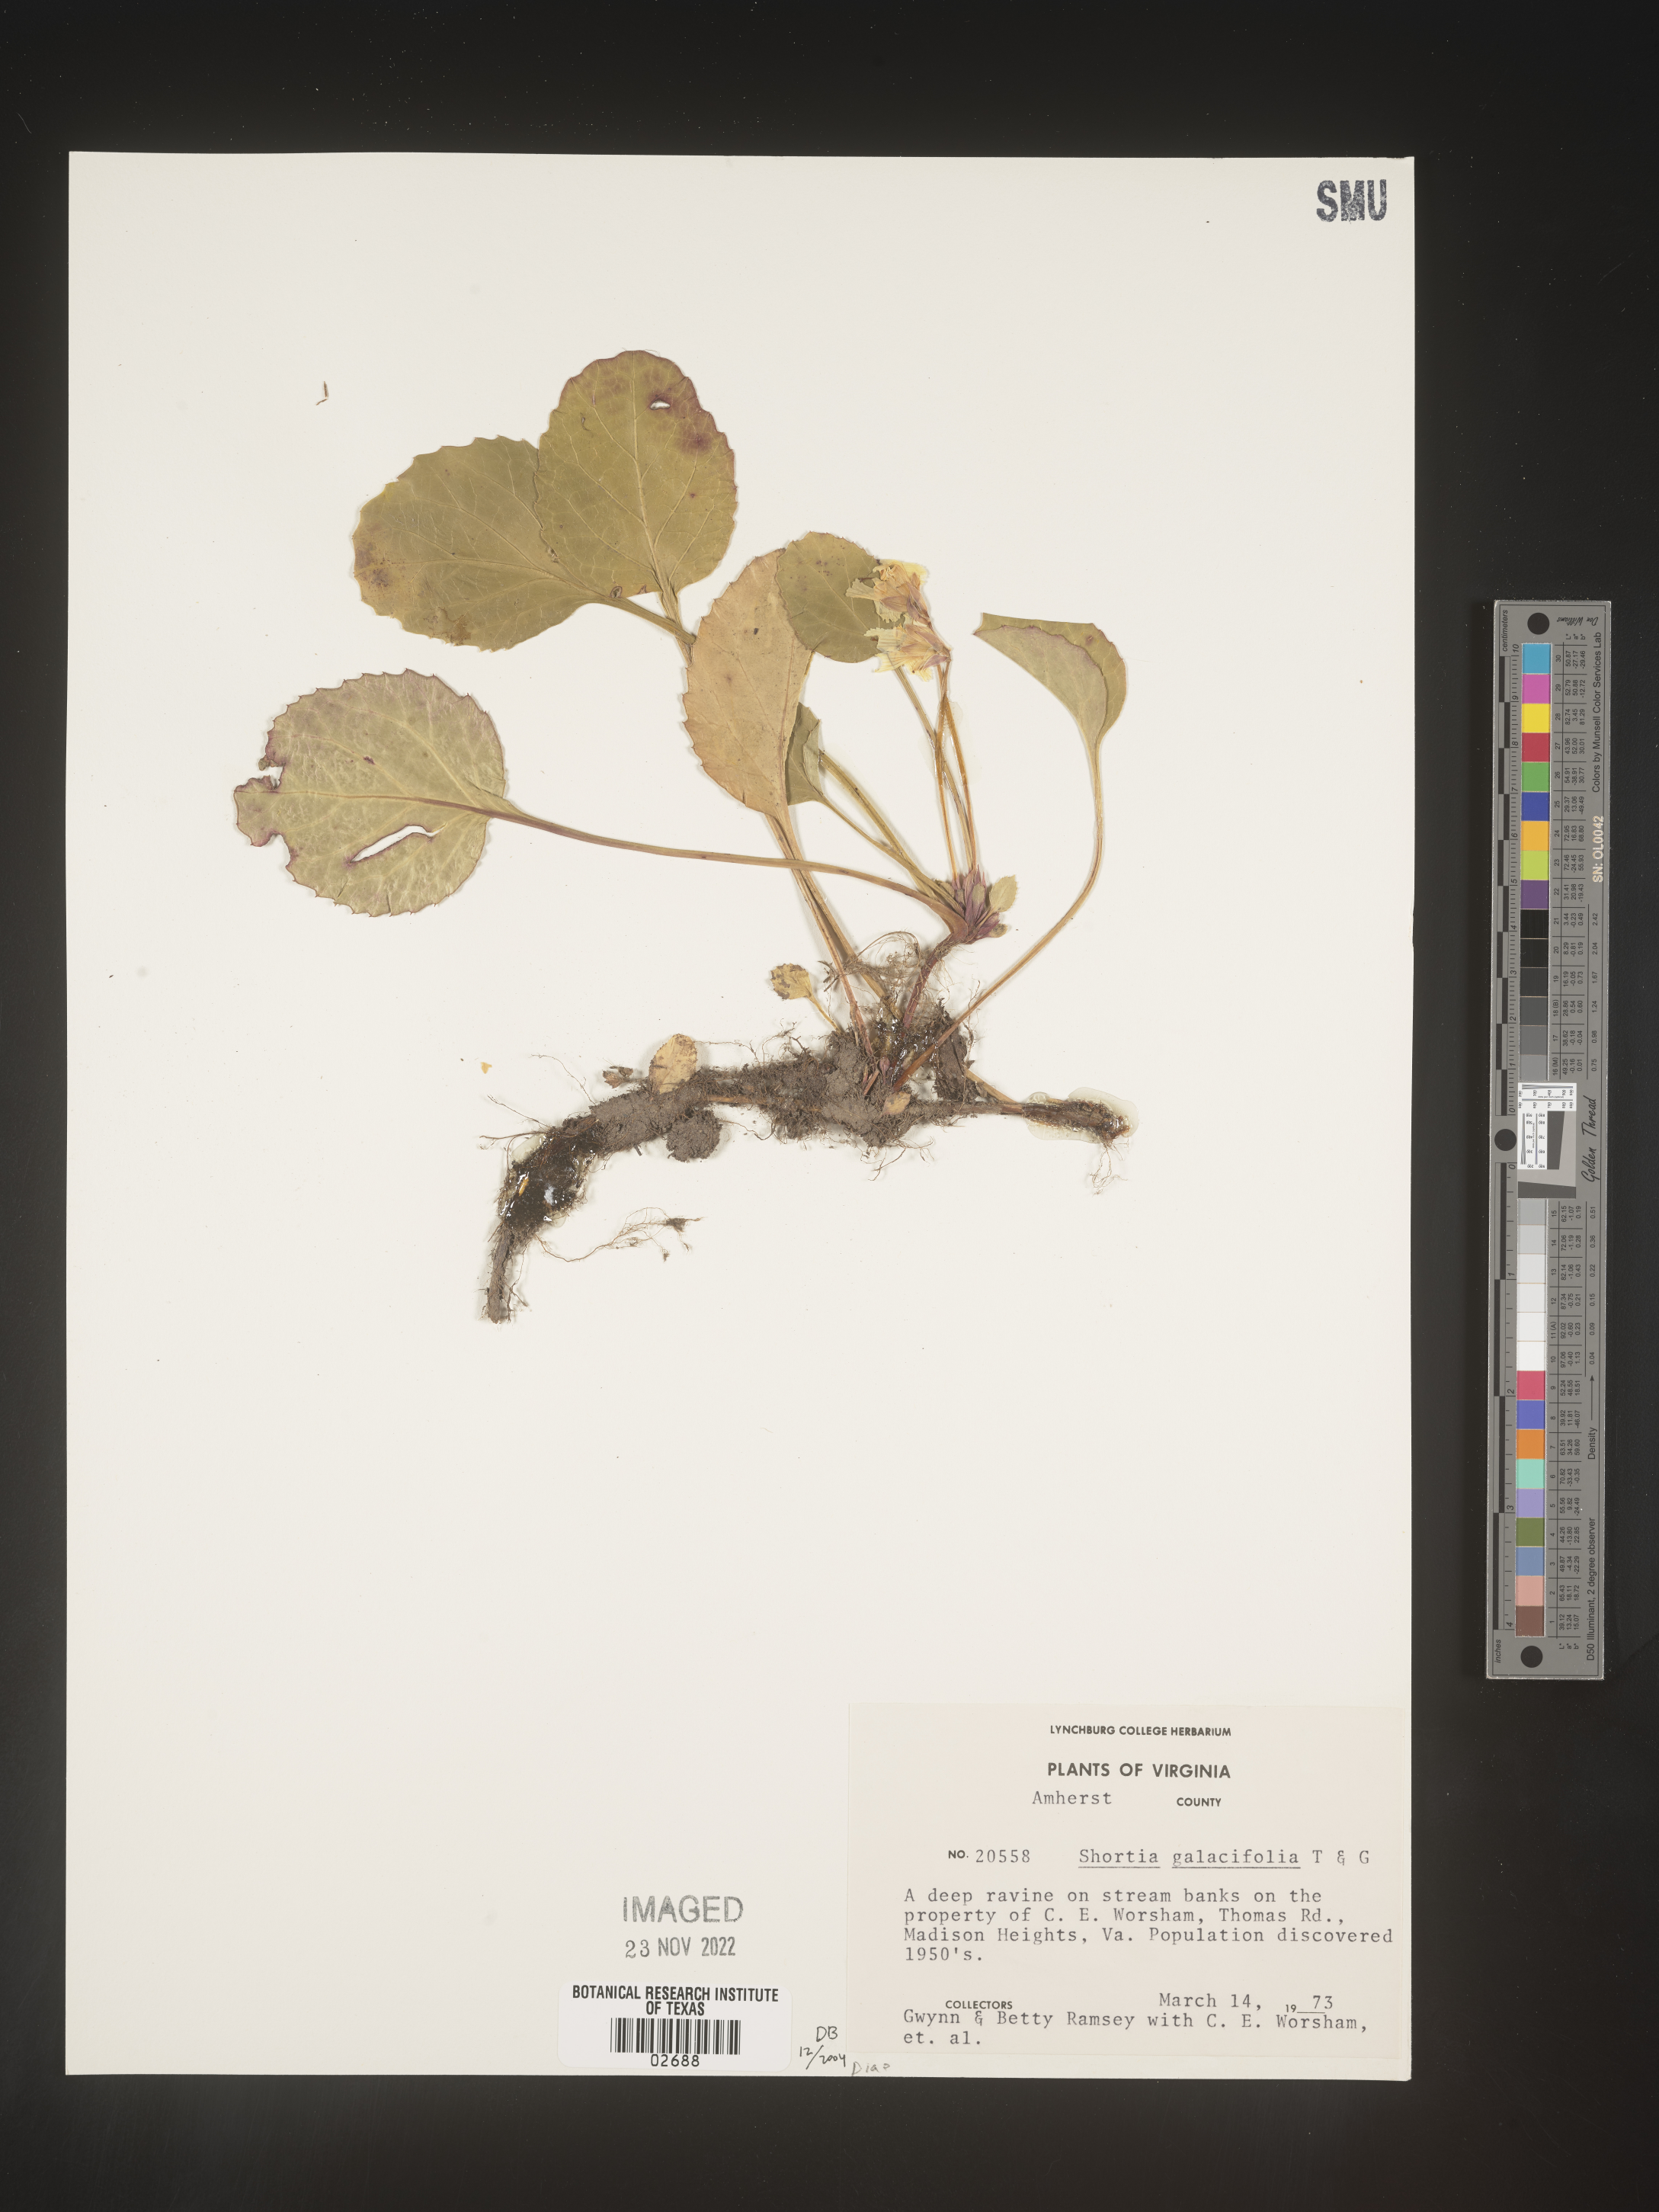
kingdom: Plantae
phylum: Tracheophyta
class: Magnoliopsida
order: Ericales
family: Diapensiaceae
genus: Shortia
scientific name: Shortia galacifolia
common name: Shortia
